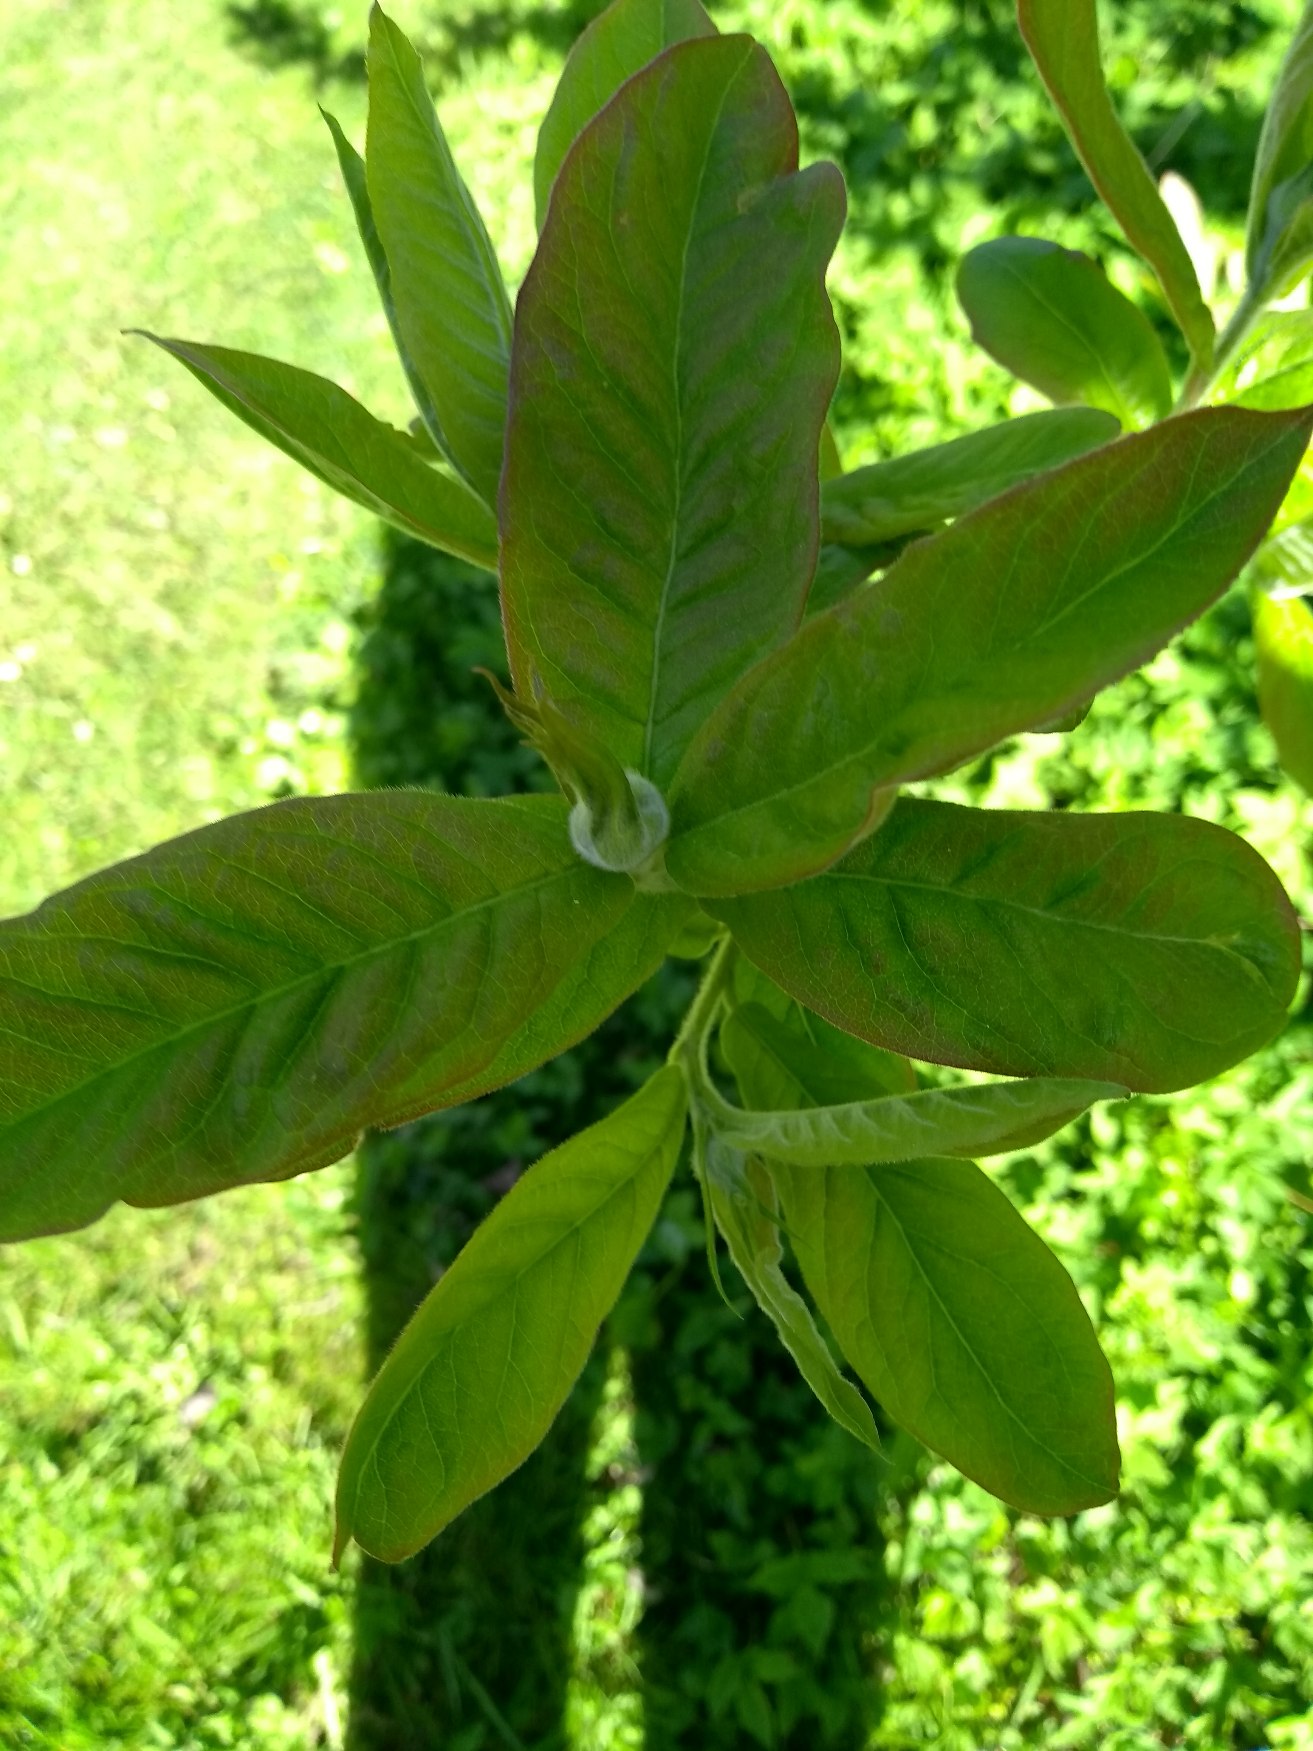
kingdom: Plantae
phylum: Tracheophyta
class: Magnoliopsida
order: Rosales
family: Rosaceae
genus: Mespilus
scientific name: Mespilus germanica
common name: Mispel
